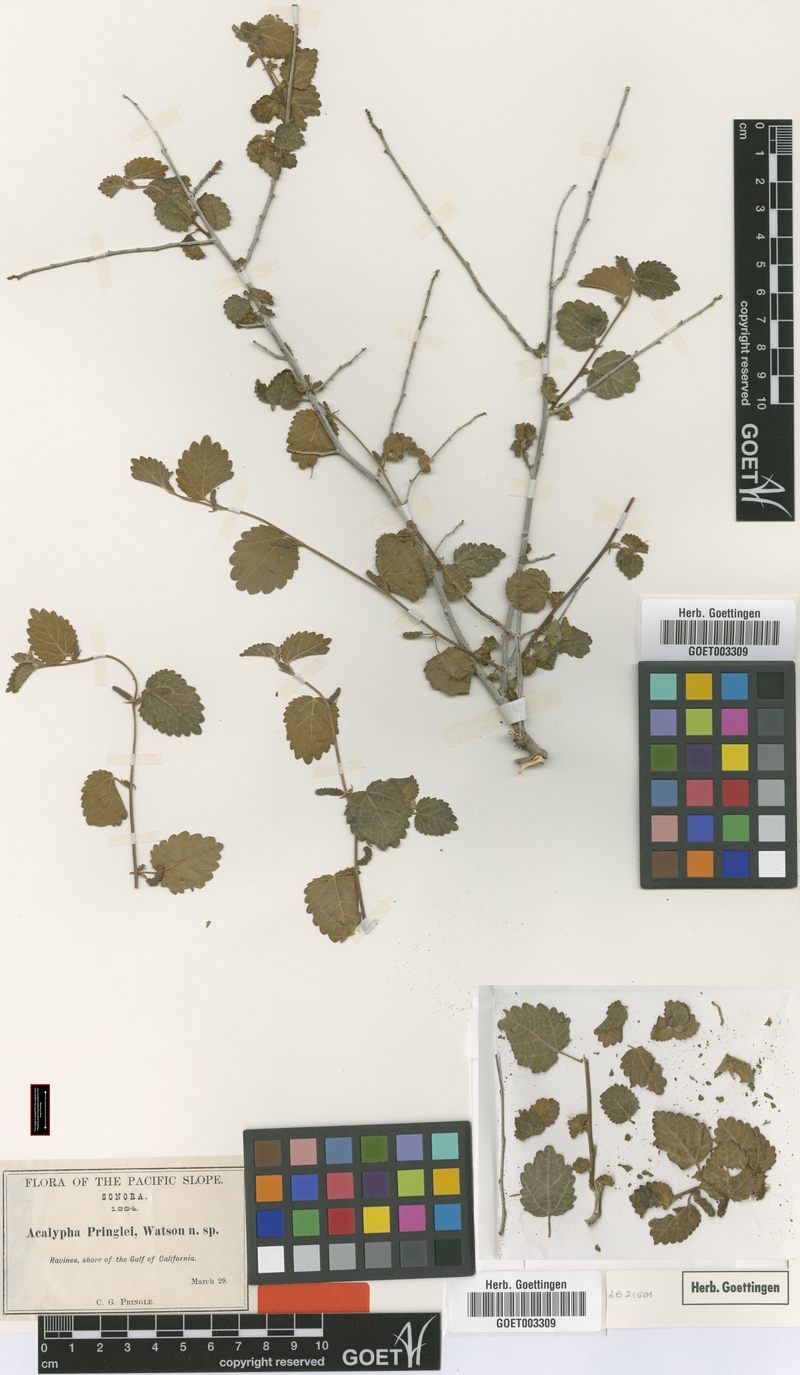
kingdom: Plantae
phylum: Tracheophyta
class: Magnoliopsida
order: Malpighiales
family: Euphorbiaceae
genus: Acalypha
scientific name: Acalypha californica
